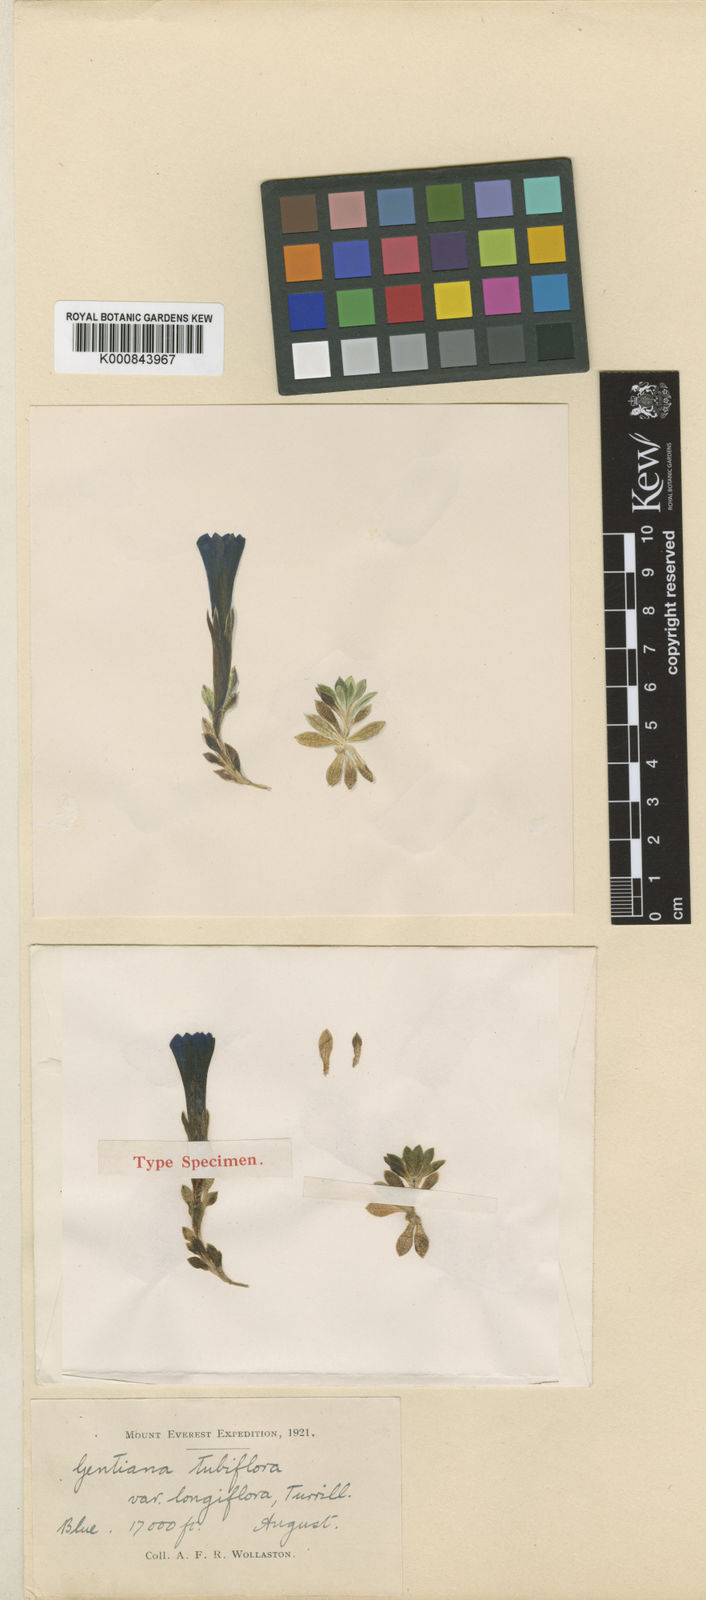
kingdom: Plantae
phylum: Tracheophyta
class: Magnoliopsida
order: Gentianales
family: Gentianaceae
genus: Gentiana
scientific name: Gentiana tubiflora
